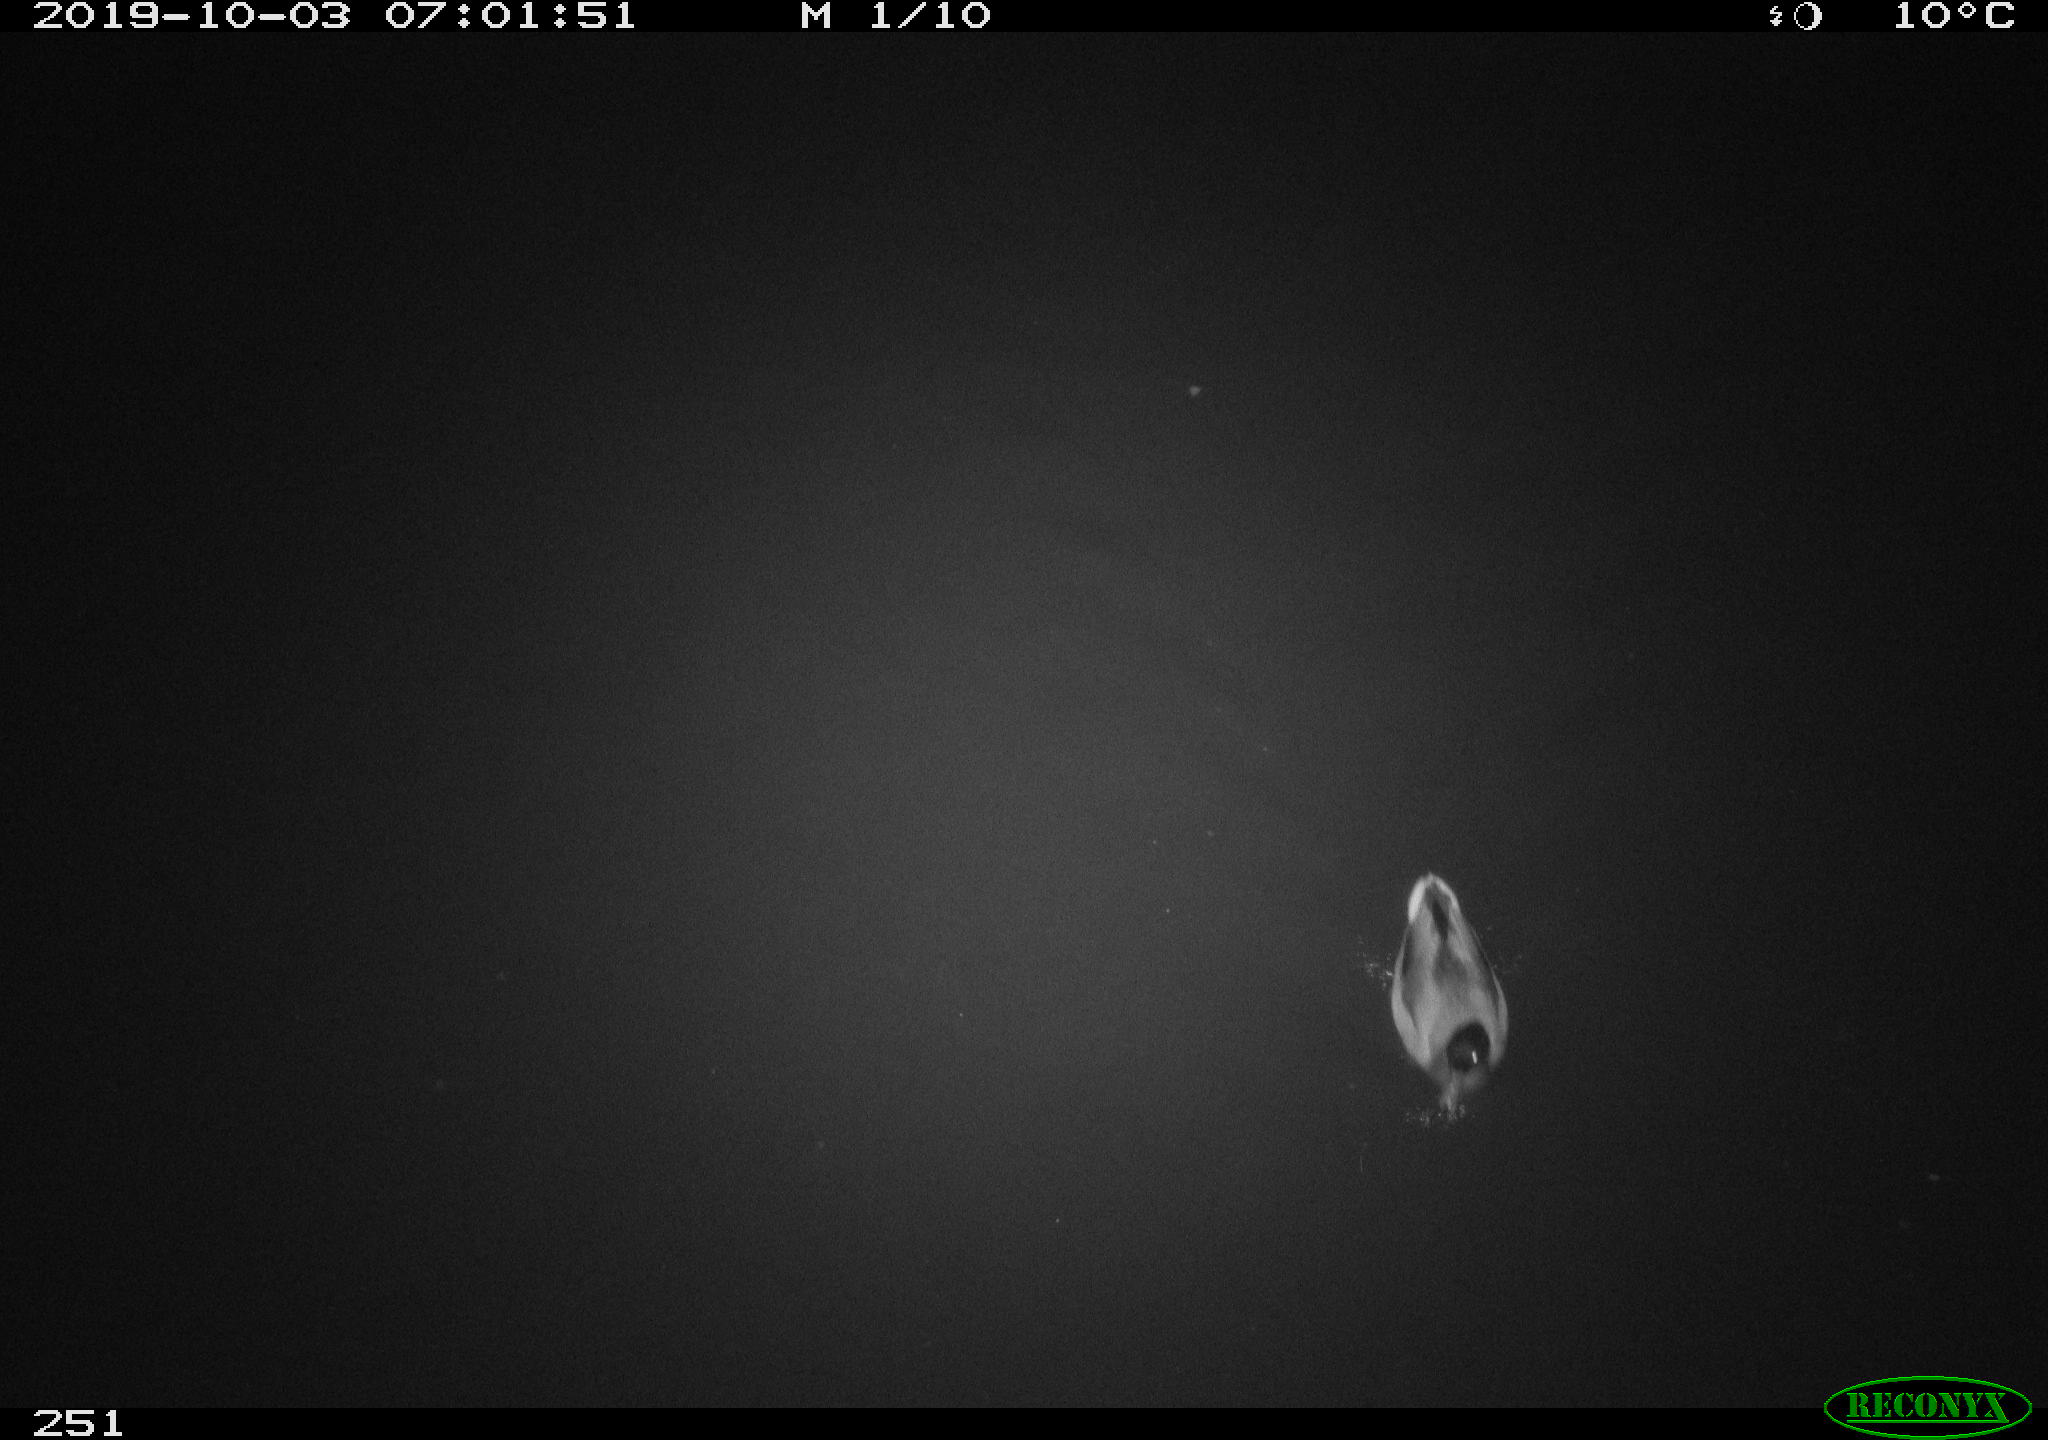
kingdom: Animalia
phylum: Chordata
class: Aves
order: Anseriformes
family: Anatidae
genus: Anas
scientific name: Anas platyrhynchos
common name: Mallard
